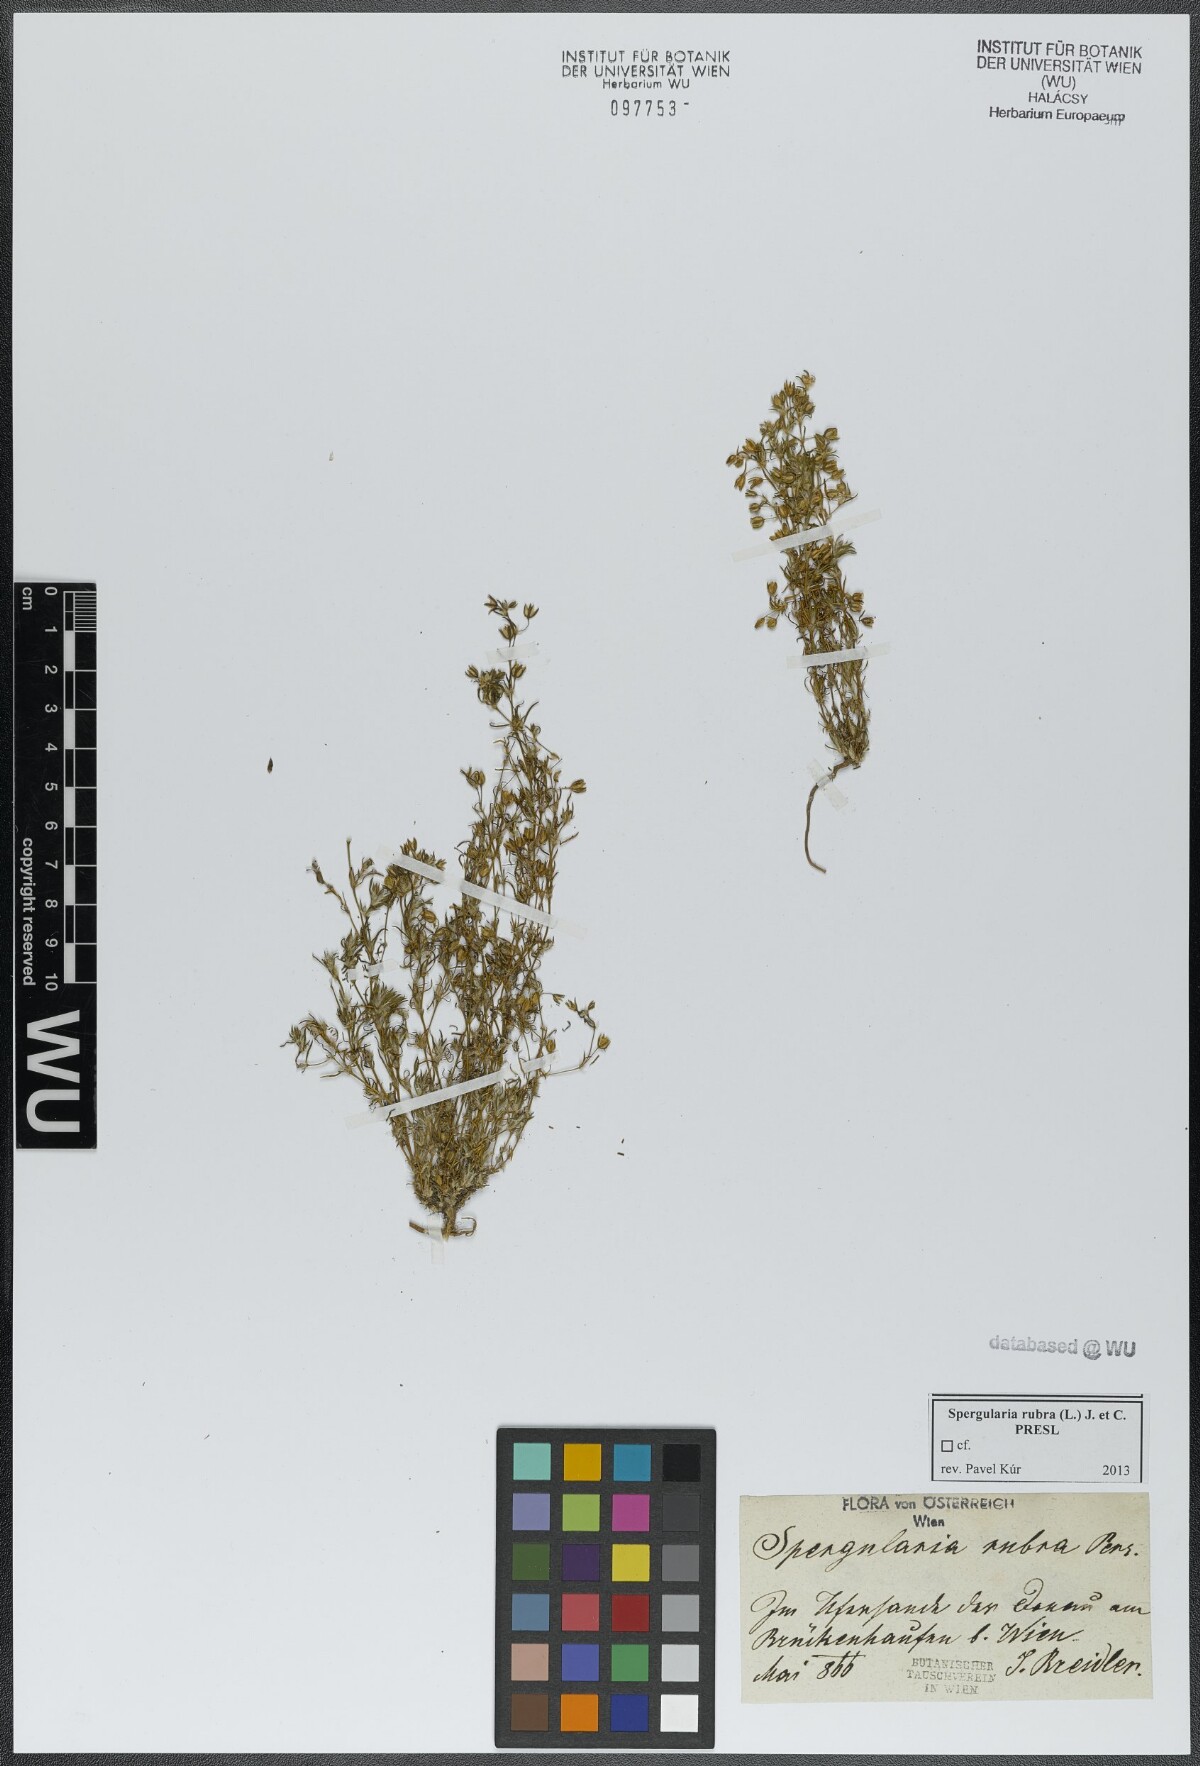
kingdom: Plantae
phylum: Tracheophyta
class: Magnoliopsida
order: Caryophyllales
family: Caryophyllaceae
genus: Spergularia
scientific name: Spergularia rubra
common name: Red sand-spurrey
